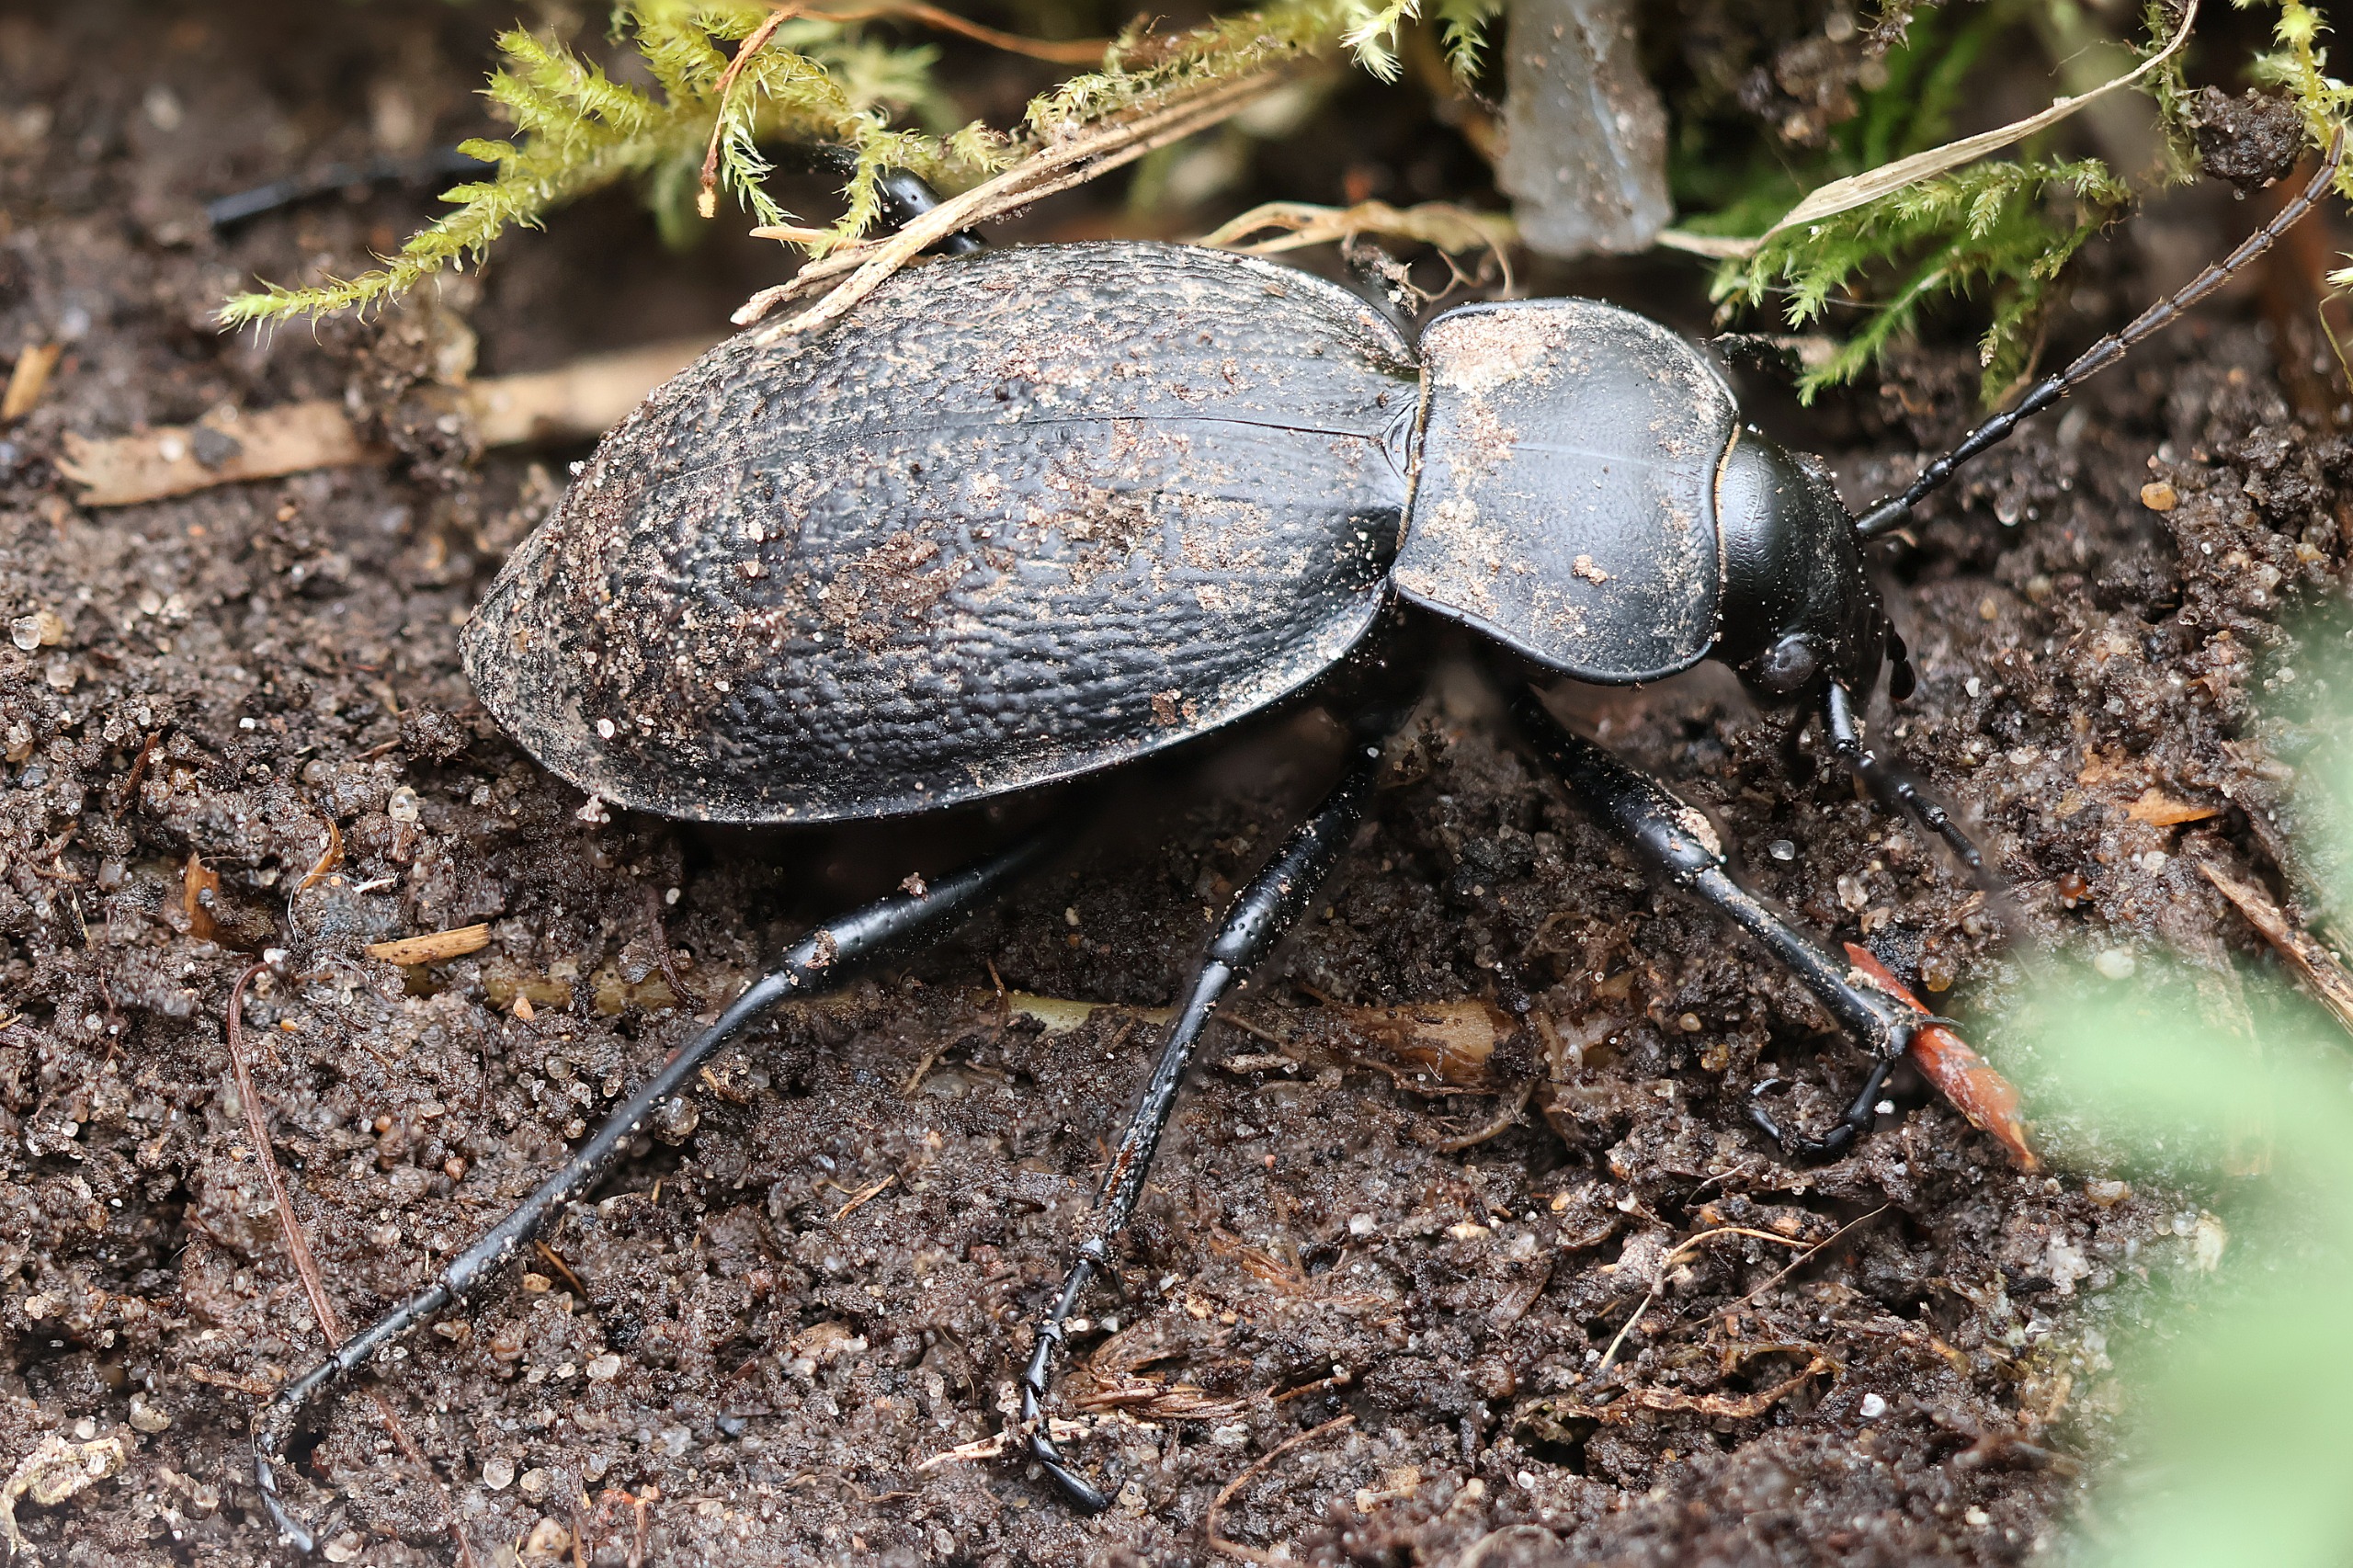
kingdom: Animalia
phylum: Arthropoda
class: Insecta
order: Coleoptera
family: Carabidae
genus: Carabus
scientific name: Carabus coriaceus
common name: Læderløber
